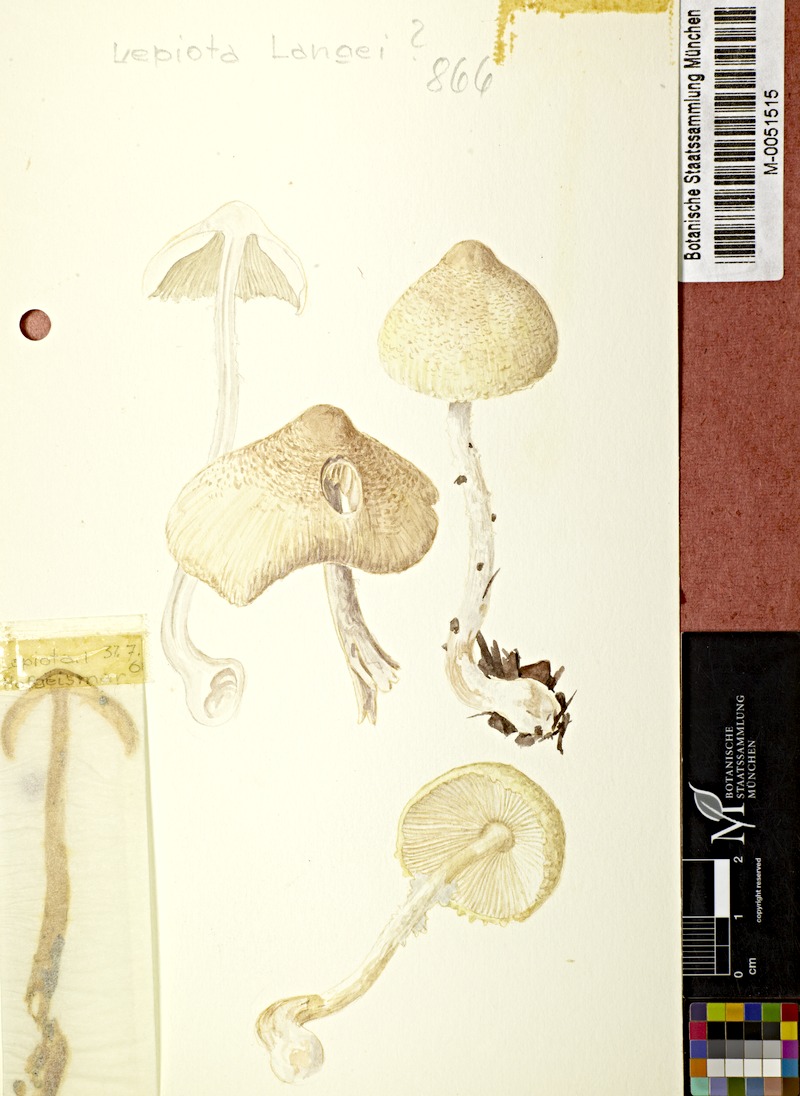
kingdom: Fungi
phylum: Basidiomycota
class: Agaricomycetes
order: Agaricales
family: Agaricaceae
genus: Echinoderma
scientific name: Echinoderma jacobi
